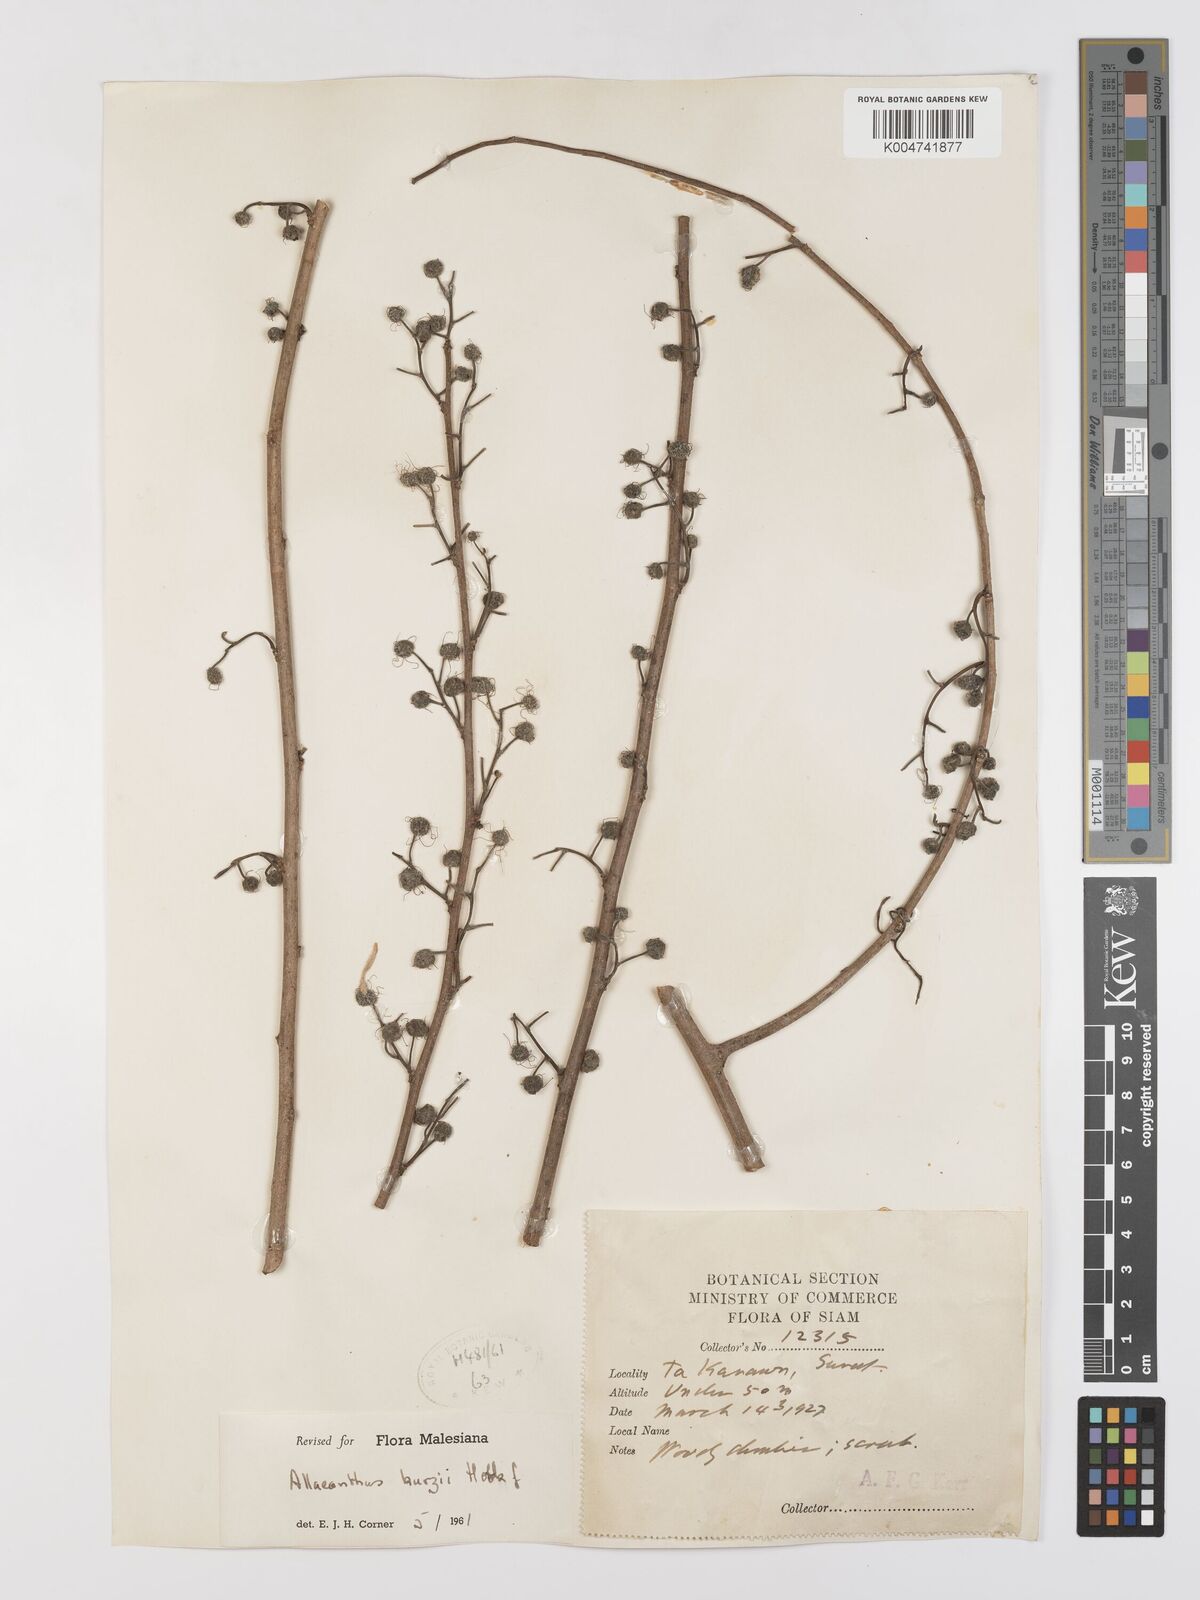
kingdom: Plantae
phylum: Tracheophyta
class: Magnoliopsida
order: Rosales
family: Moraceae
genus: Allaeanthus
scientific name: Allaeanthus kurzii
